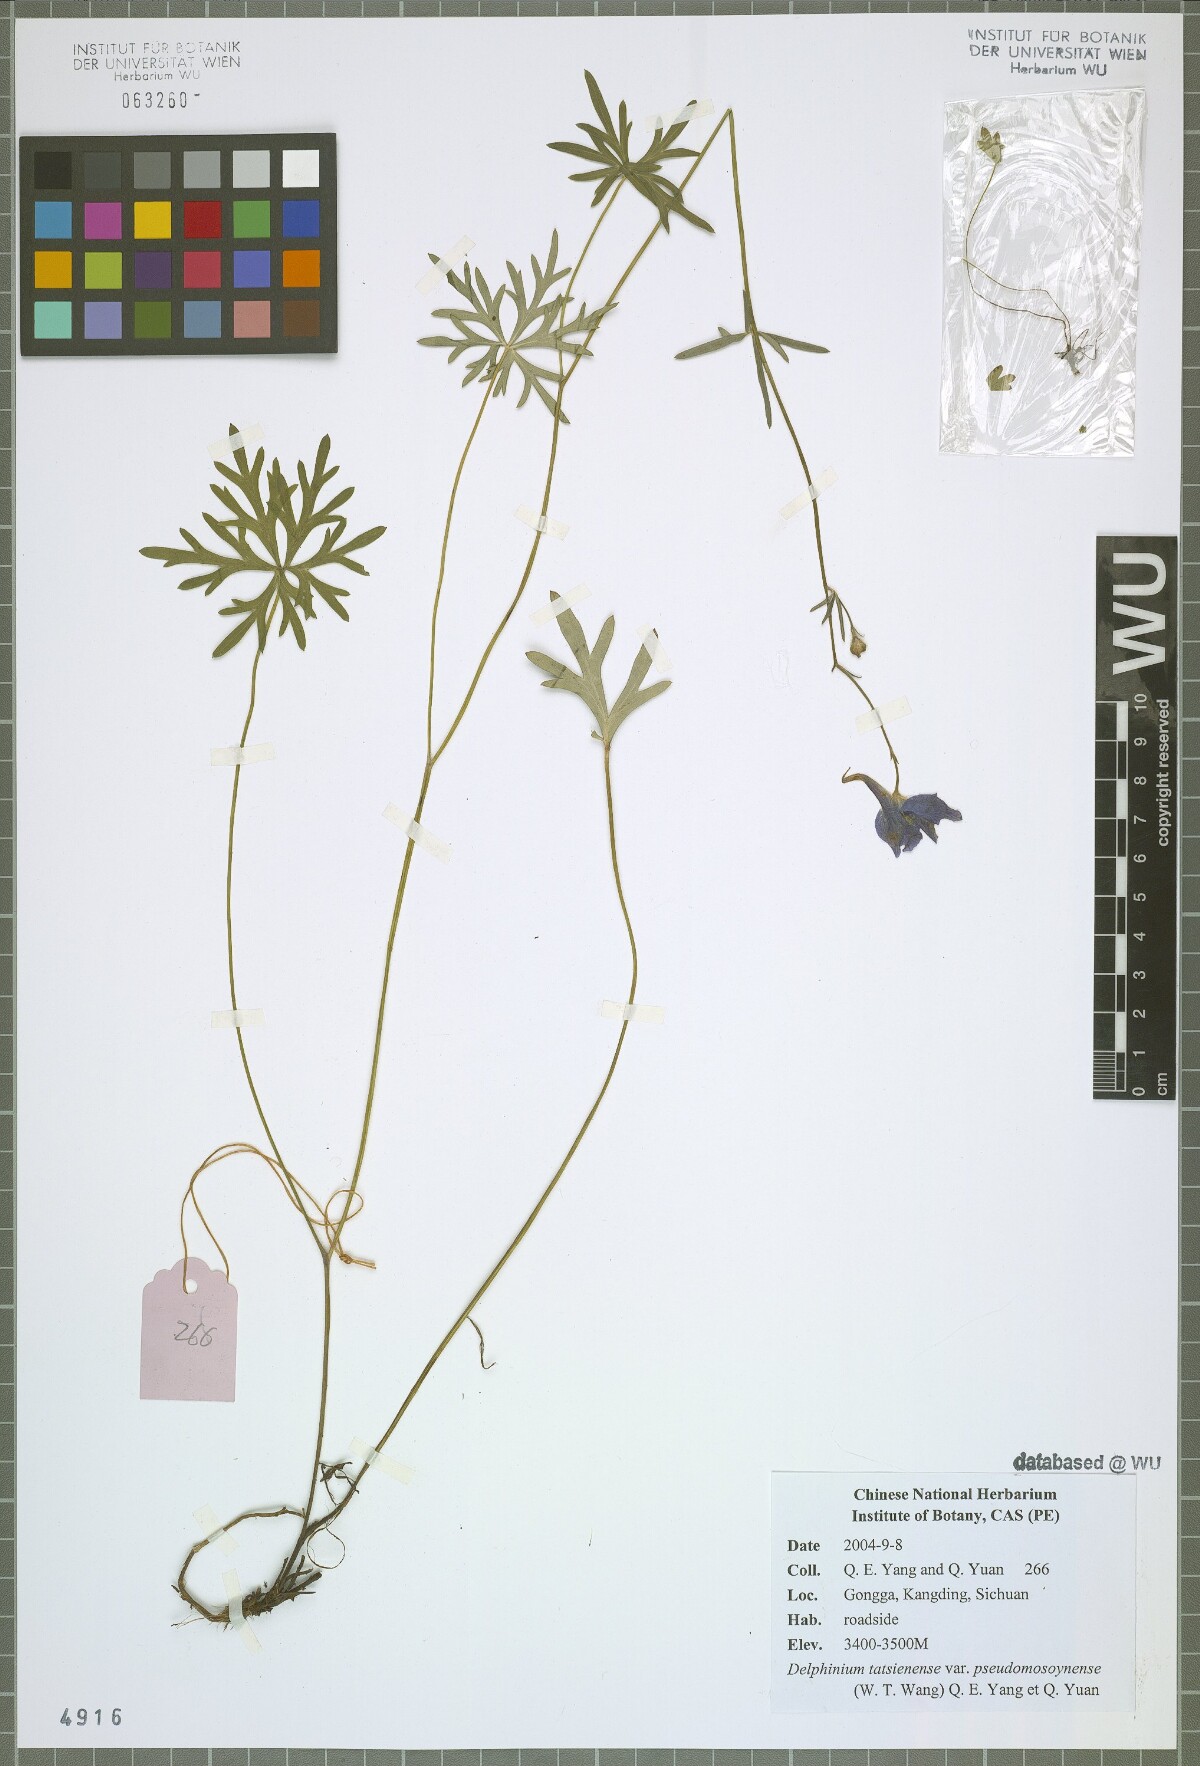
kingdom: Plantae
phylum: Tracheophyta
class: Magnoliopsida
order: Ranunculales
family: Ranunculaceae
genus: Delphinium
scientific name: Delphinium tatsienense
